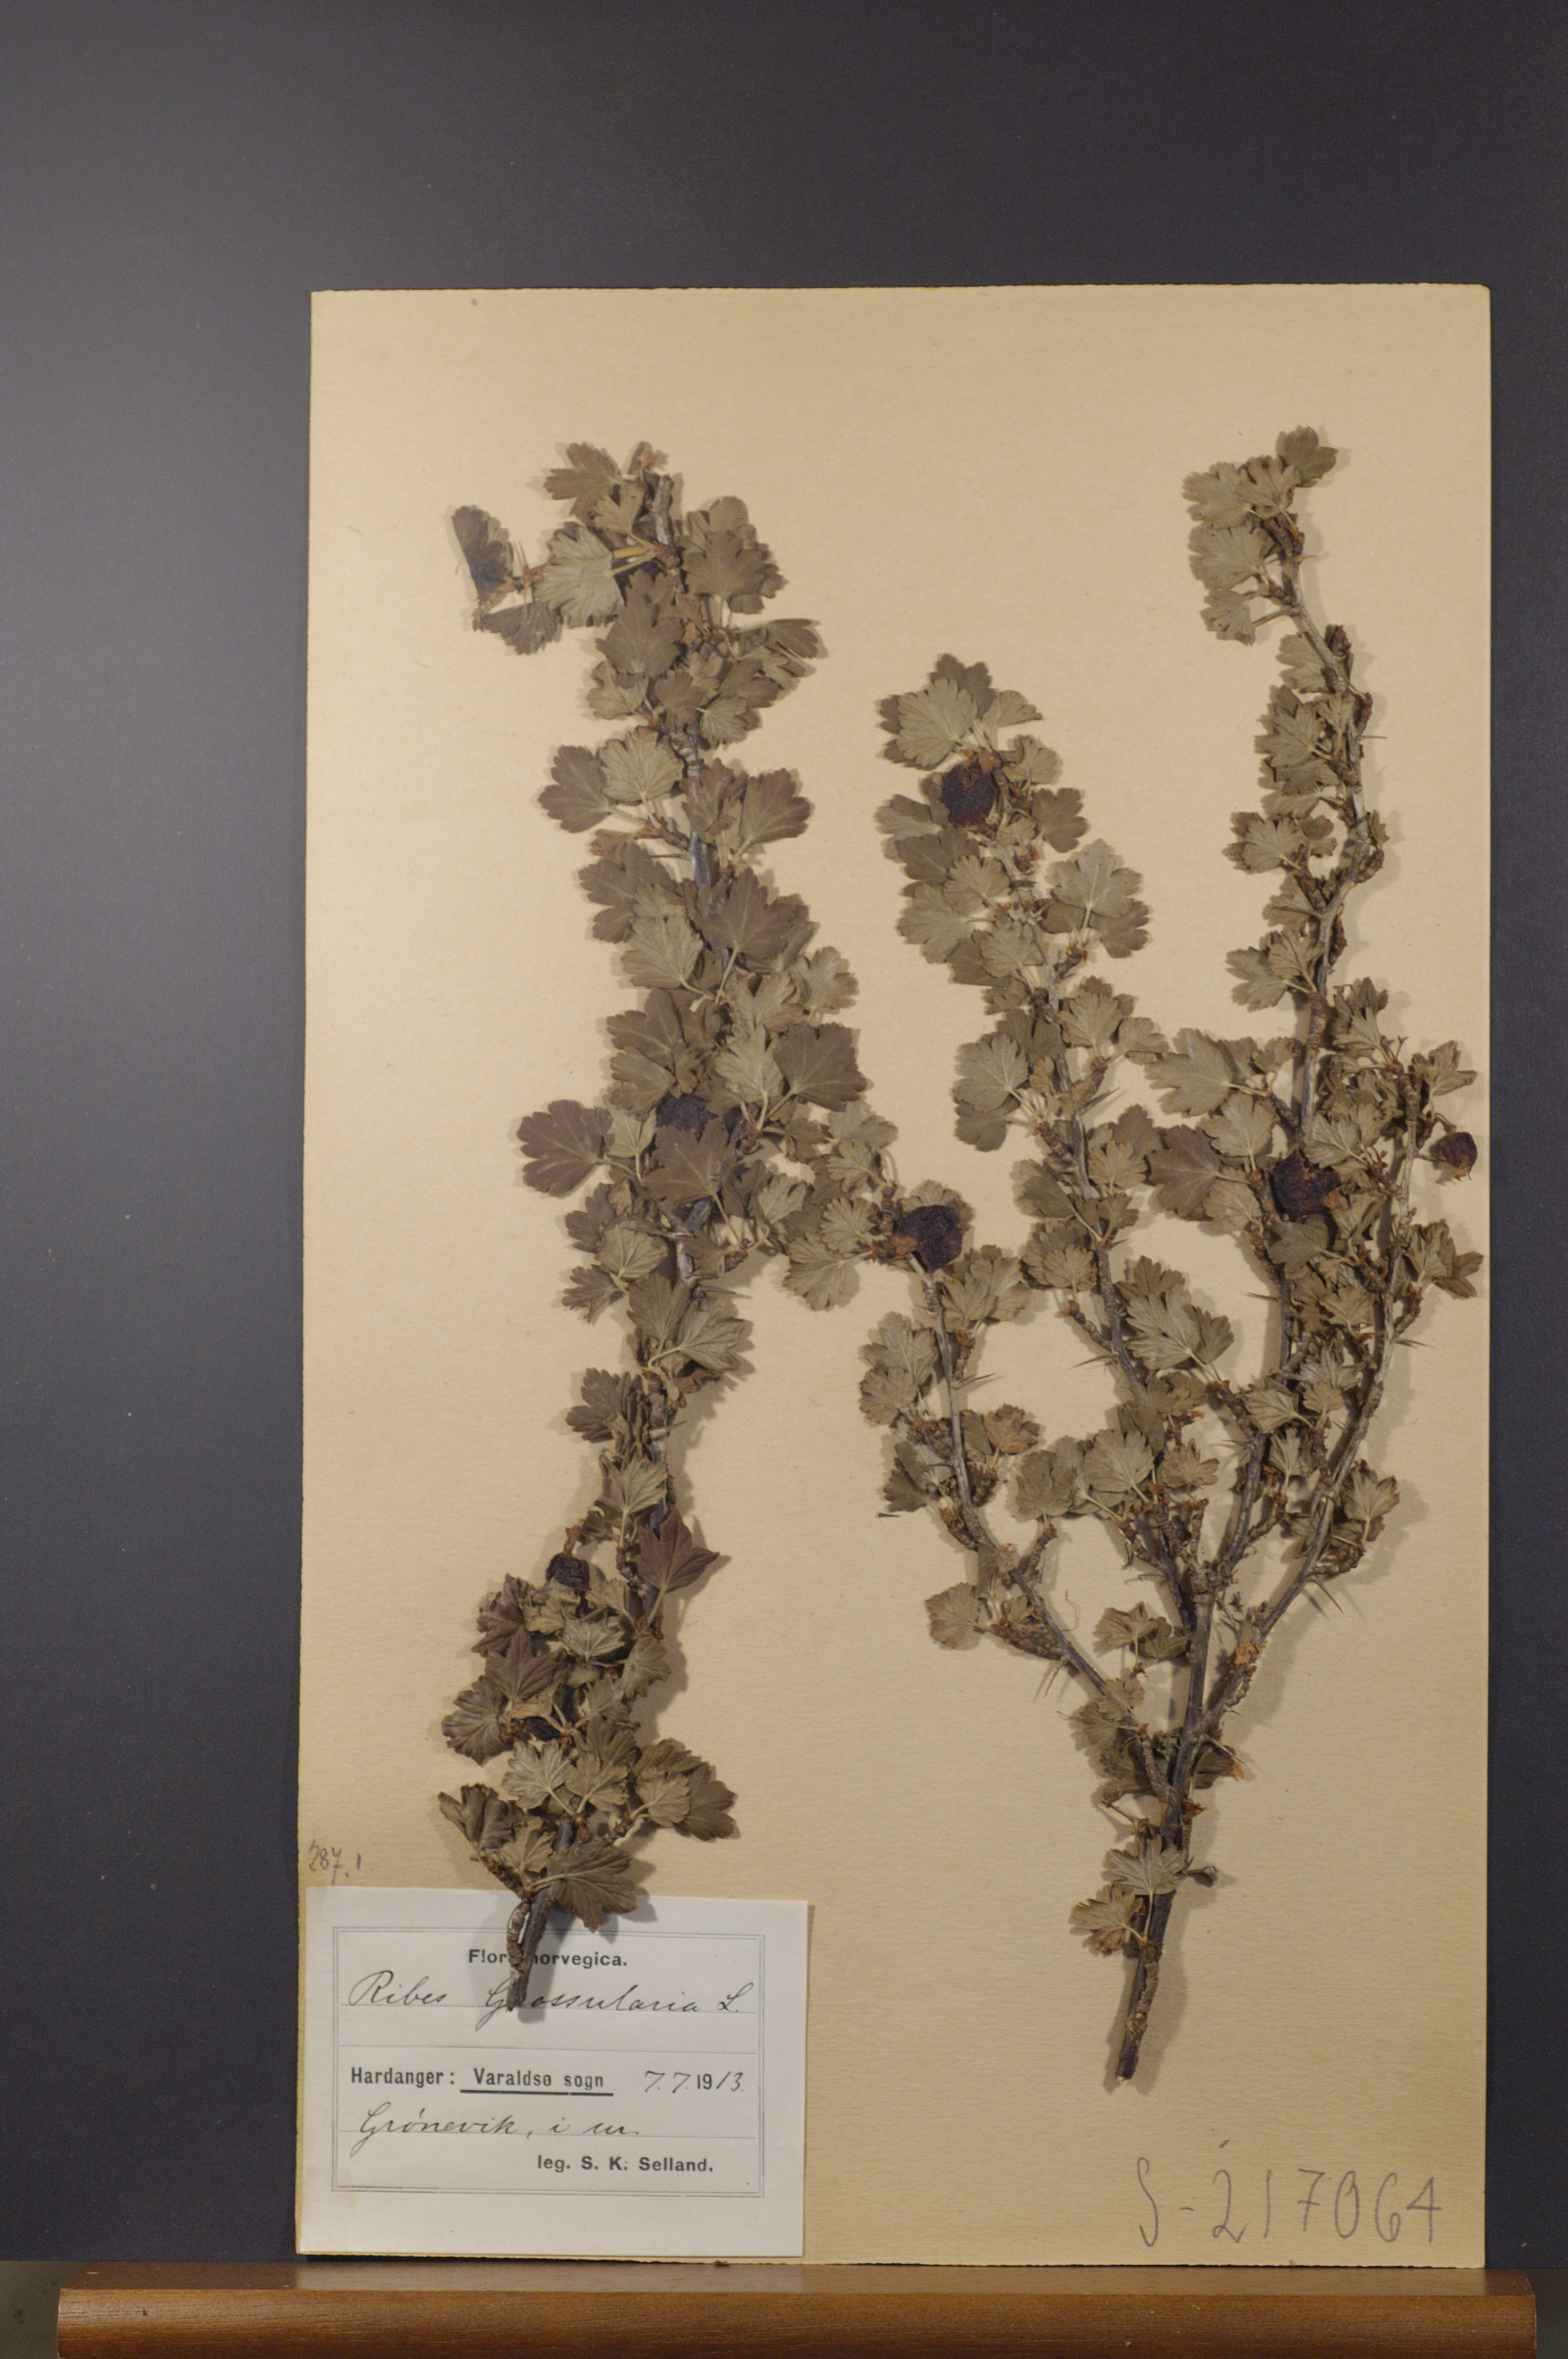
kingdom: Plantae
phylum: Tracheophyta
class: Magnoliopsida
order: Saxifragales
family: Grossulariaceae
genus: Ribes
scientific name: Ribes uva-crispa
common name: Gooseberry
